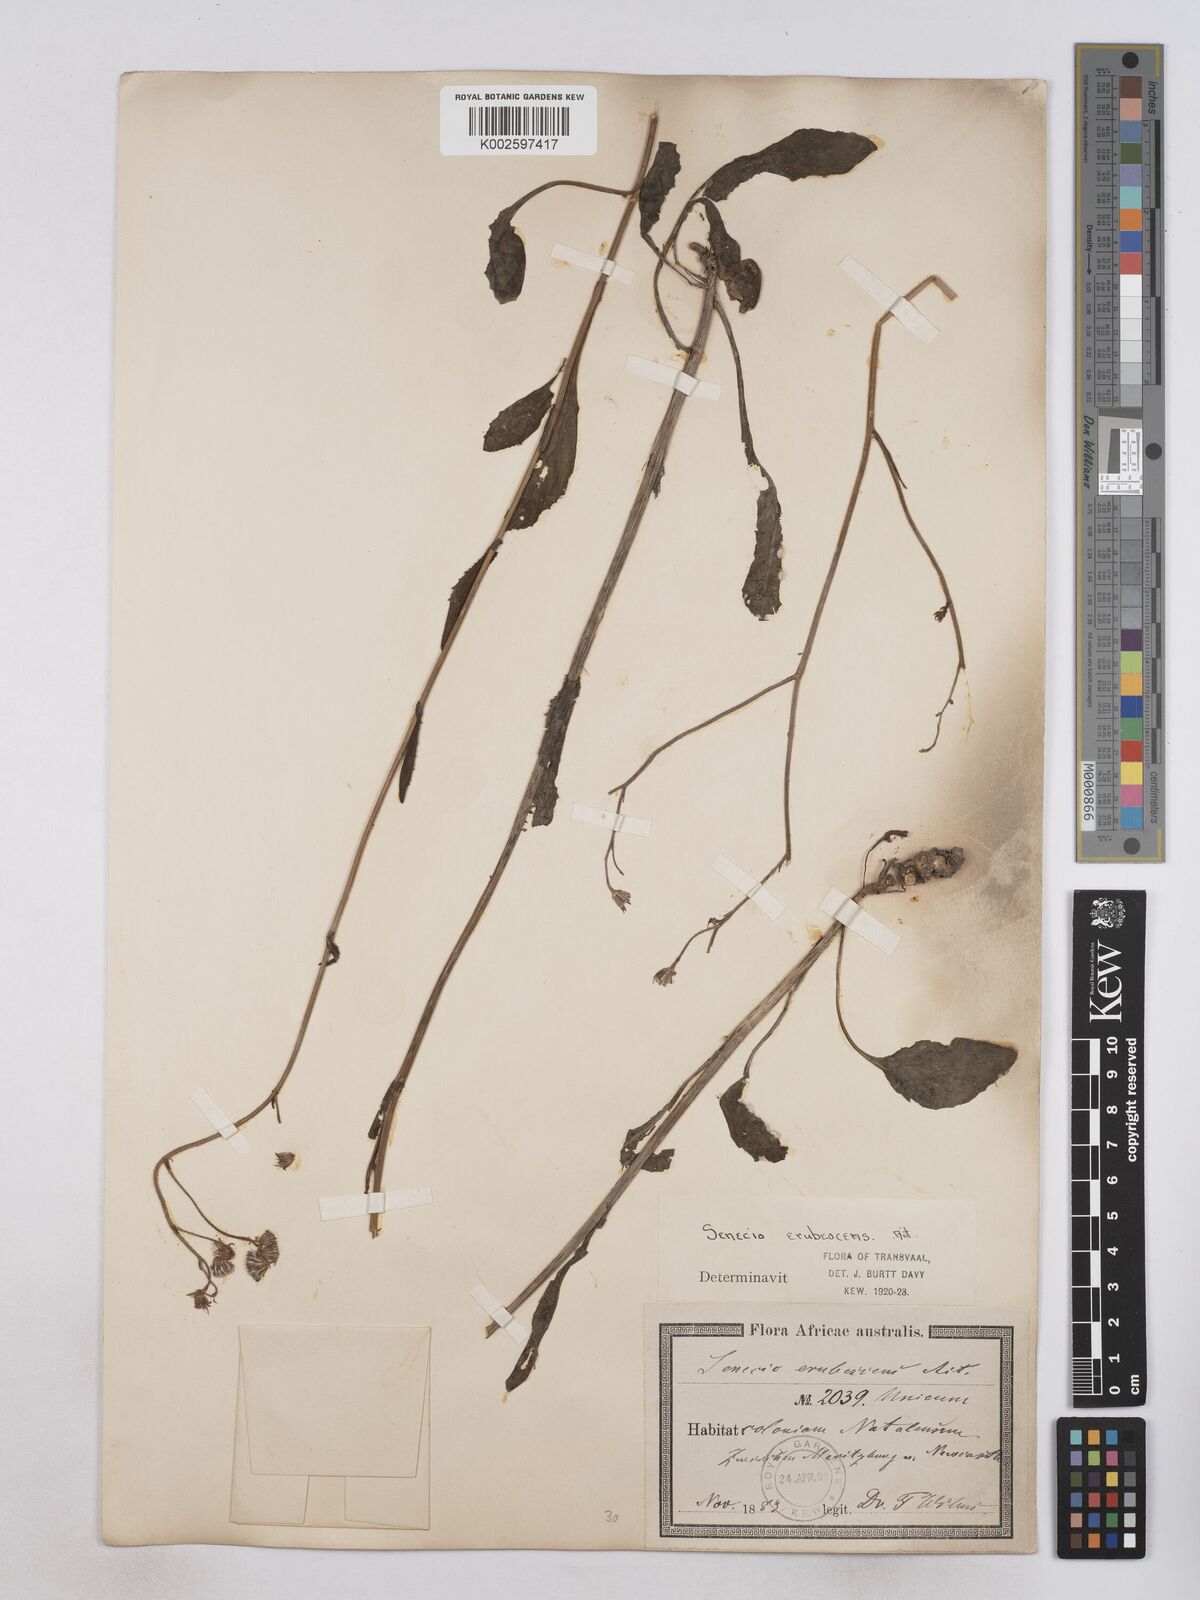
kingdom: Plantae
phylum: Tracheophyta
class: Magnoliopsida
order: Asterales
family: Asteraceae
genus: Senecio
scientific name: Senecio polyodon
